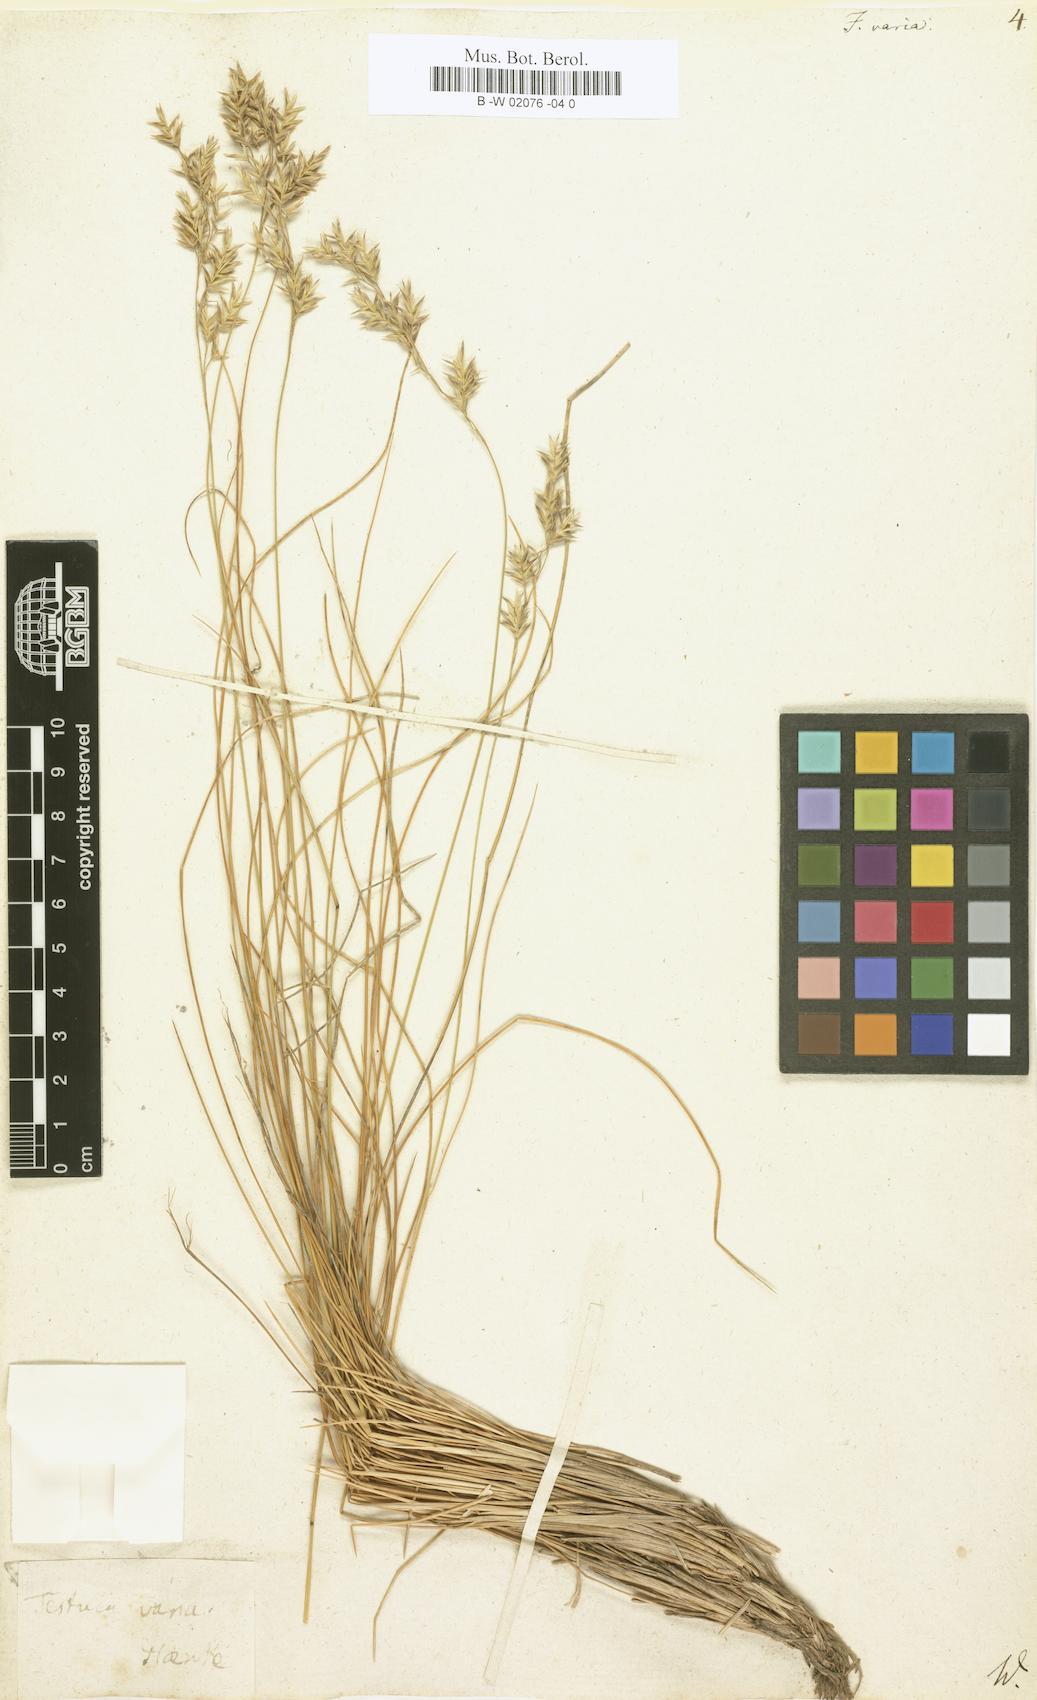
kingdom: Plantae
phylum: Tracheophyta
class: Liliopsida
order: Poales
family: Poaceae
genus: Festuca
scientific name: Festuca varia
